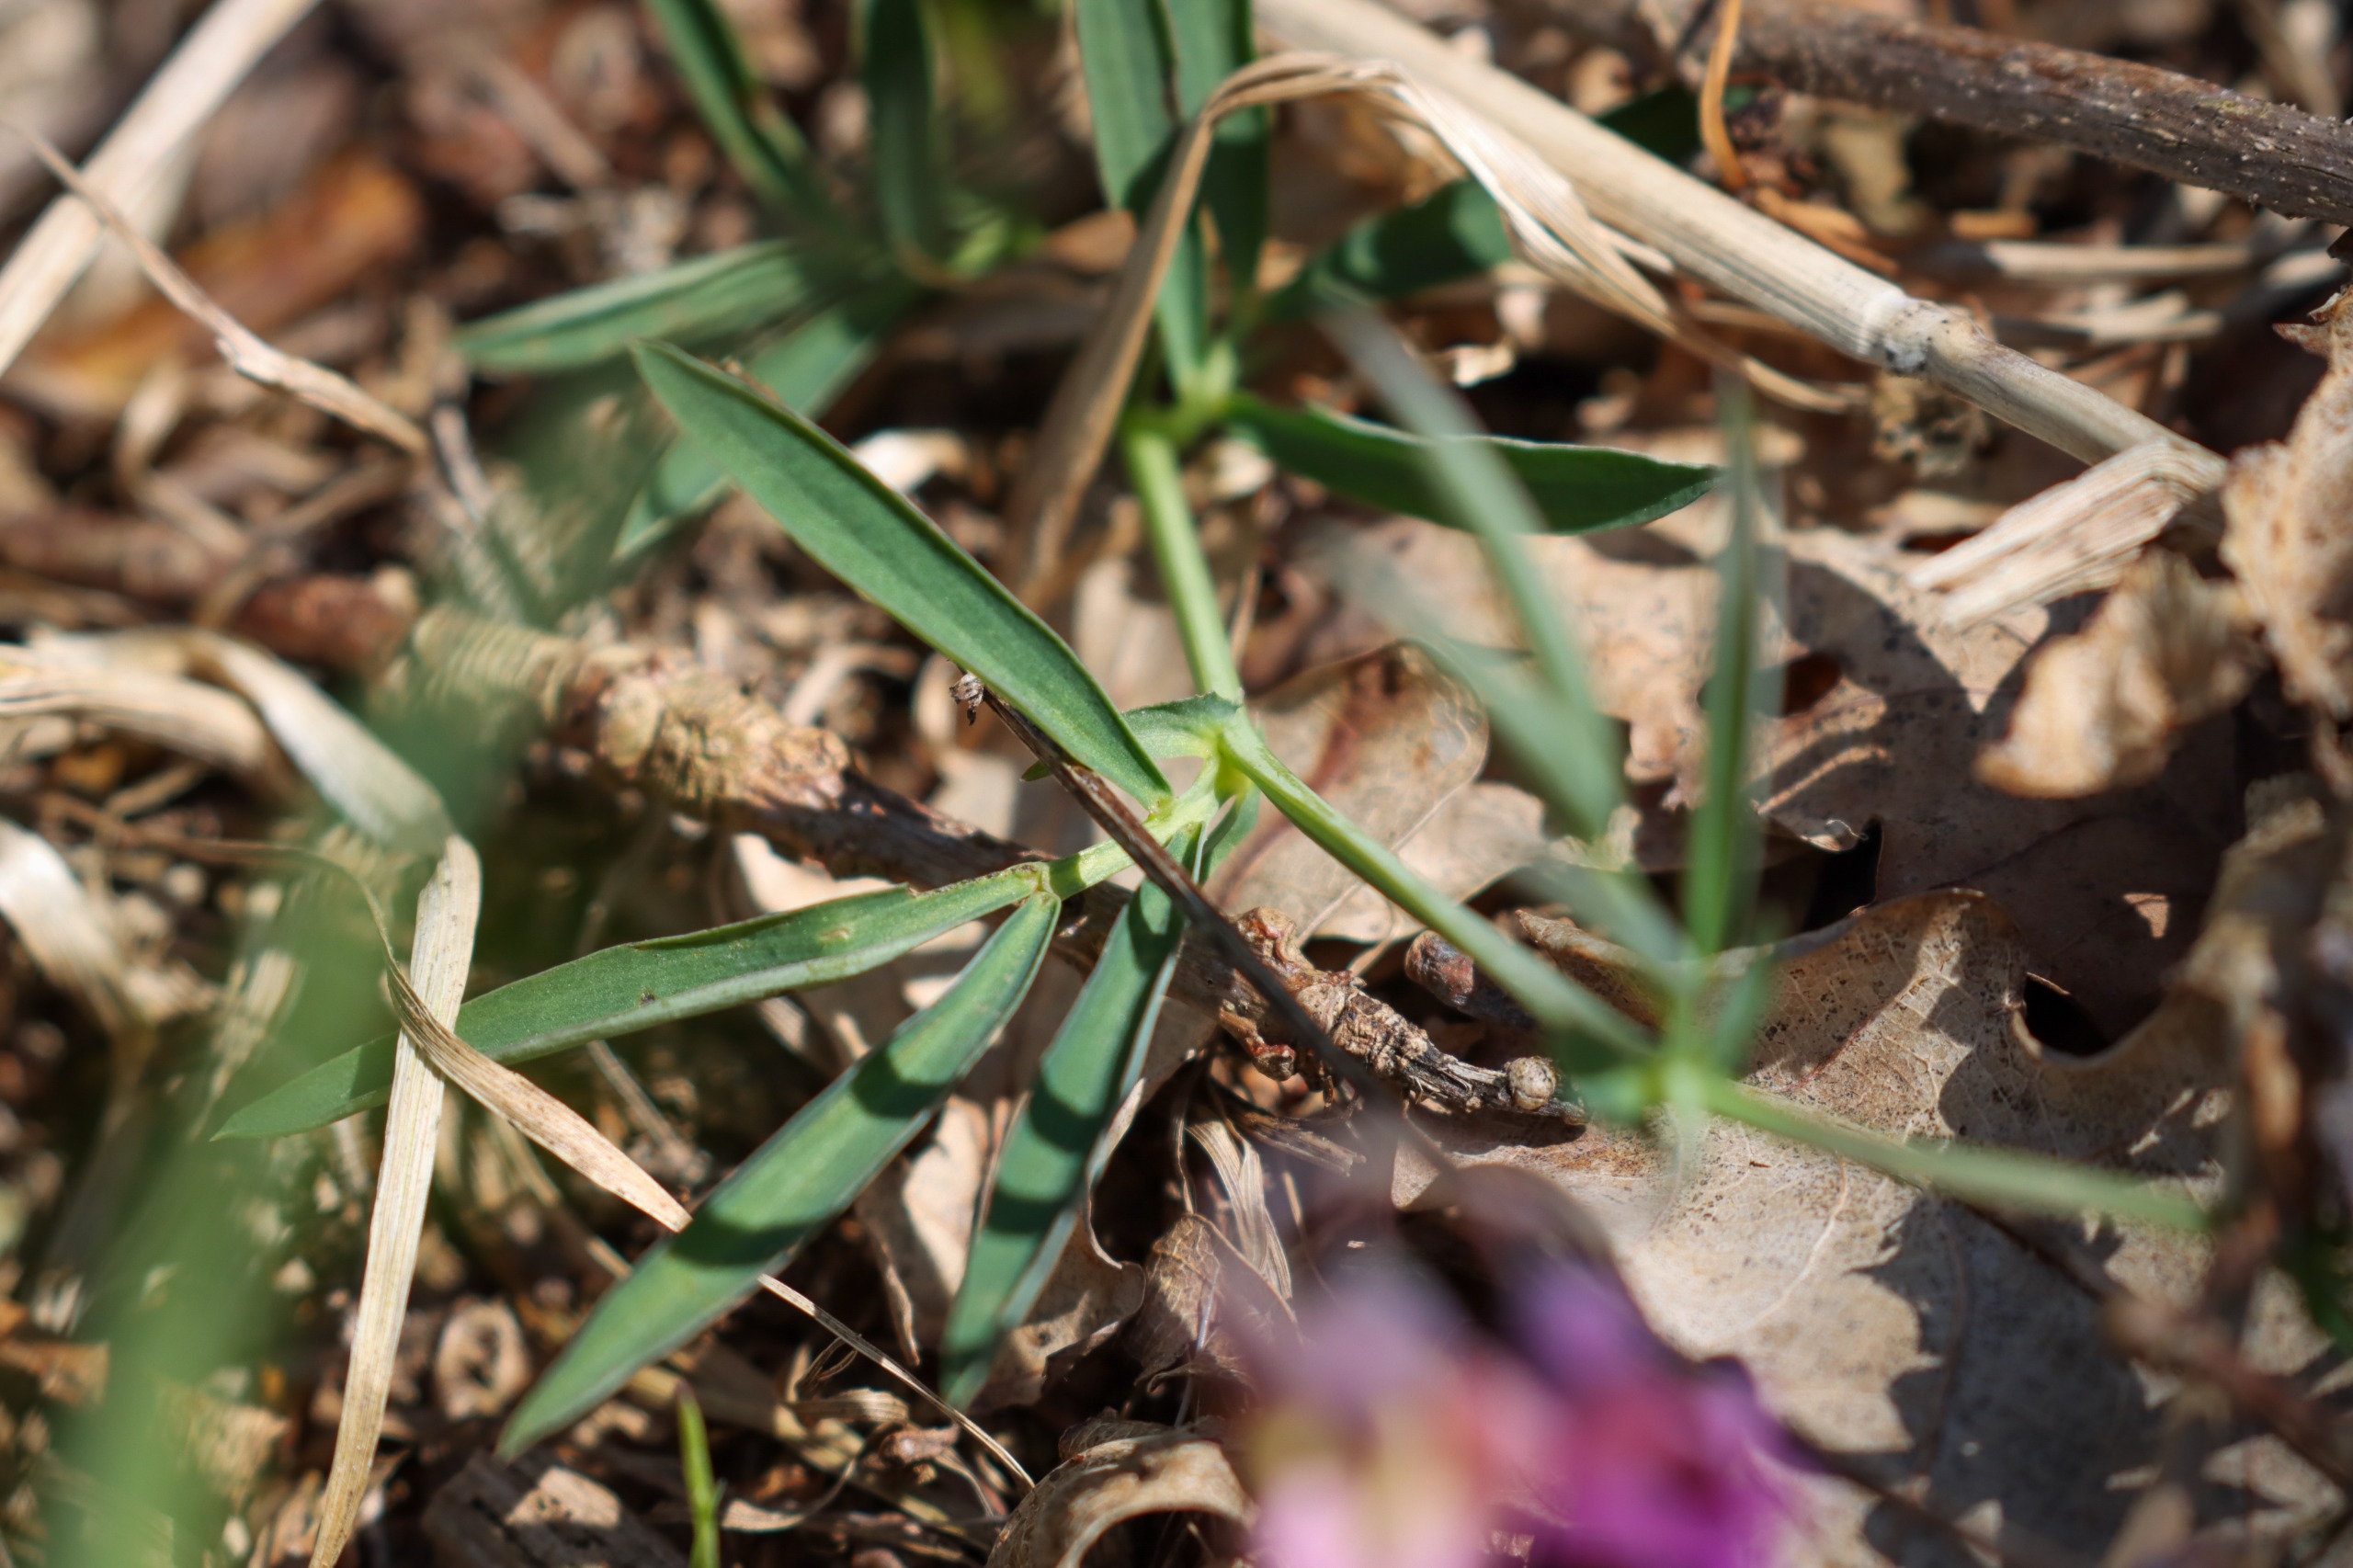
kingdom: Plantae
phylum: Tracheophyta
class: Magnoliopsida
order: Fabales
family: Fabaceae
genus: Lathyrus
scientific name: Lathyrus linifolius
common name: Krat-fladbælg
